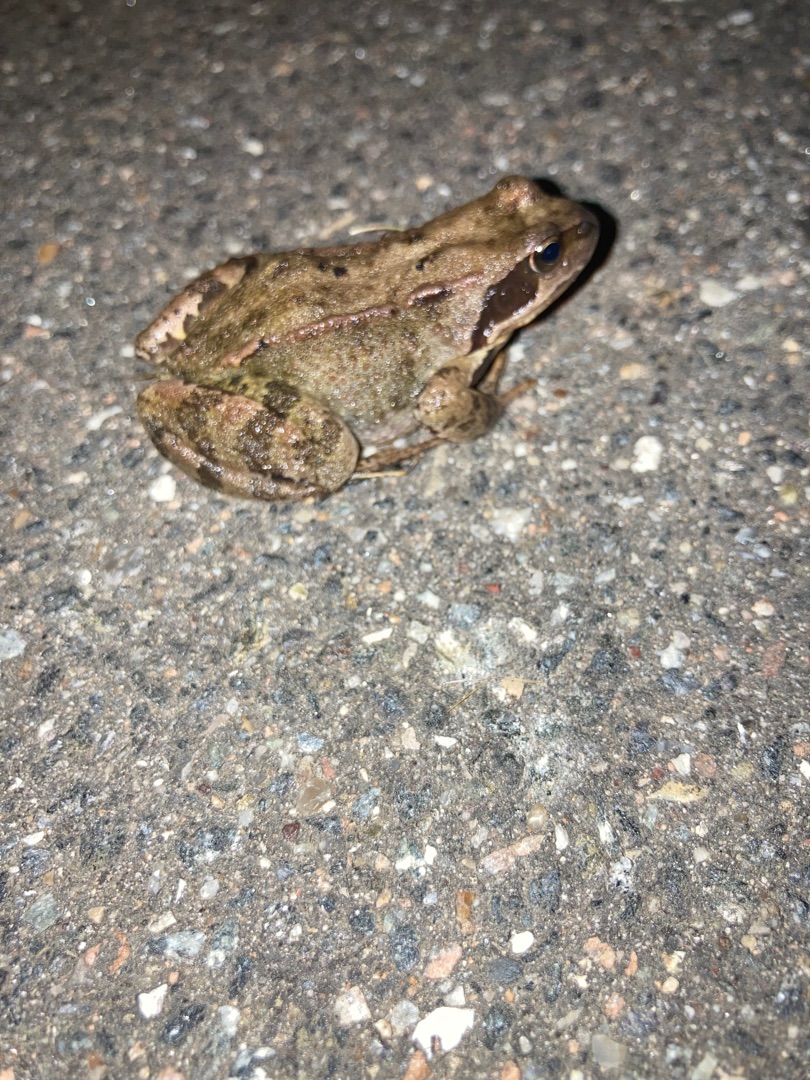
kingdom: Animalia
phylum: Chordata
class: Amphibia
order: Anura
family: Ranidae
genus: Rana
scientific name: Rana temporaria
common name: Butsnudet frø
